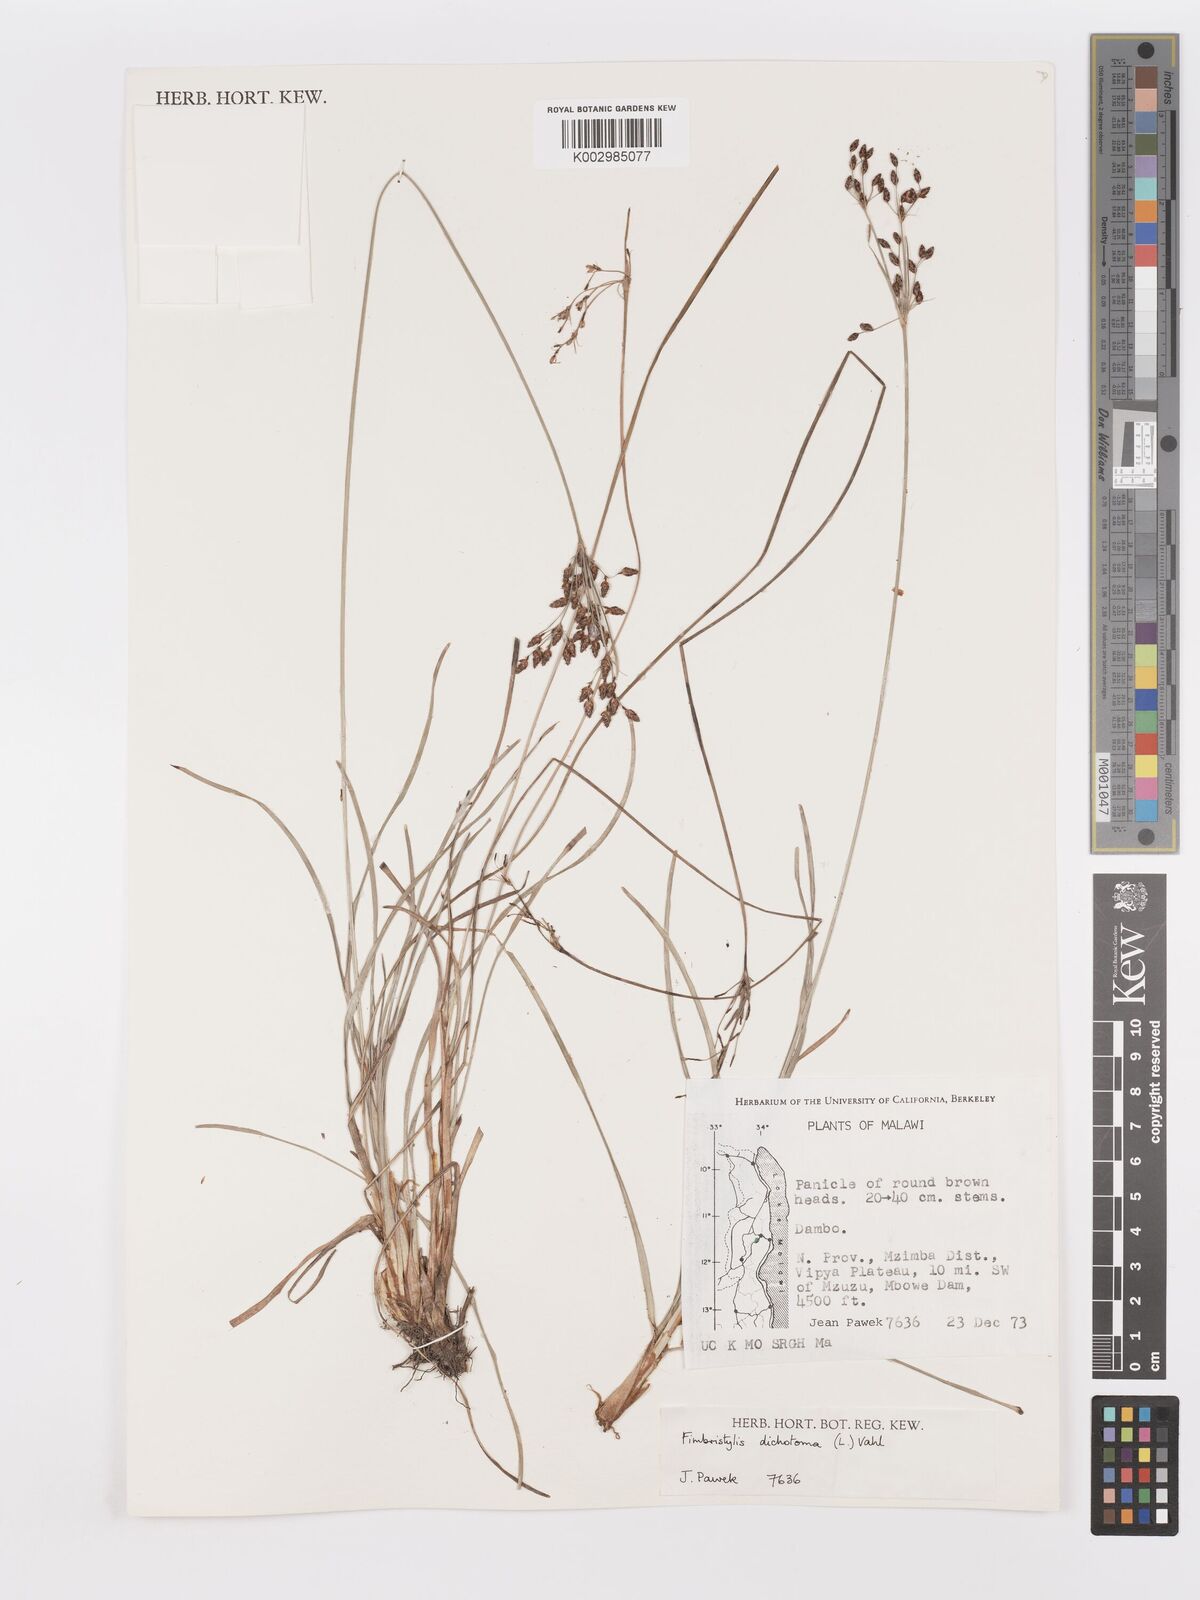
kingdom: Plantae
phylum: Tracheophyta
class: Liliopsida
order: Poales
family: Cyperaceae
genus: Fimbristylis
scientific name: Fimbristylis dichotoma
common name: Forked fimbry
